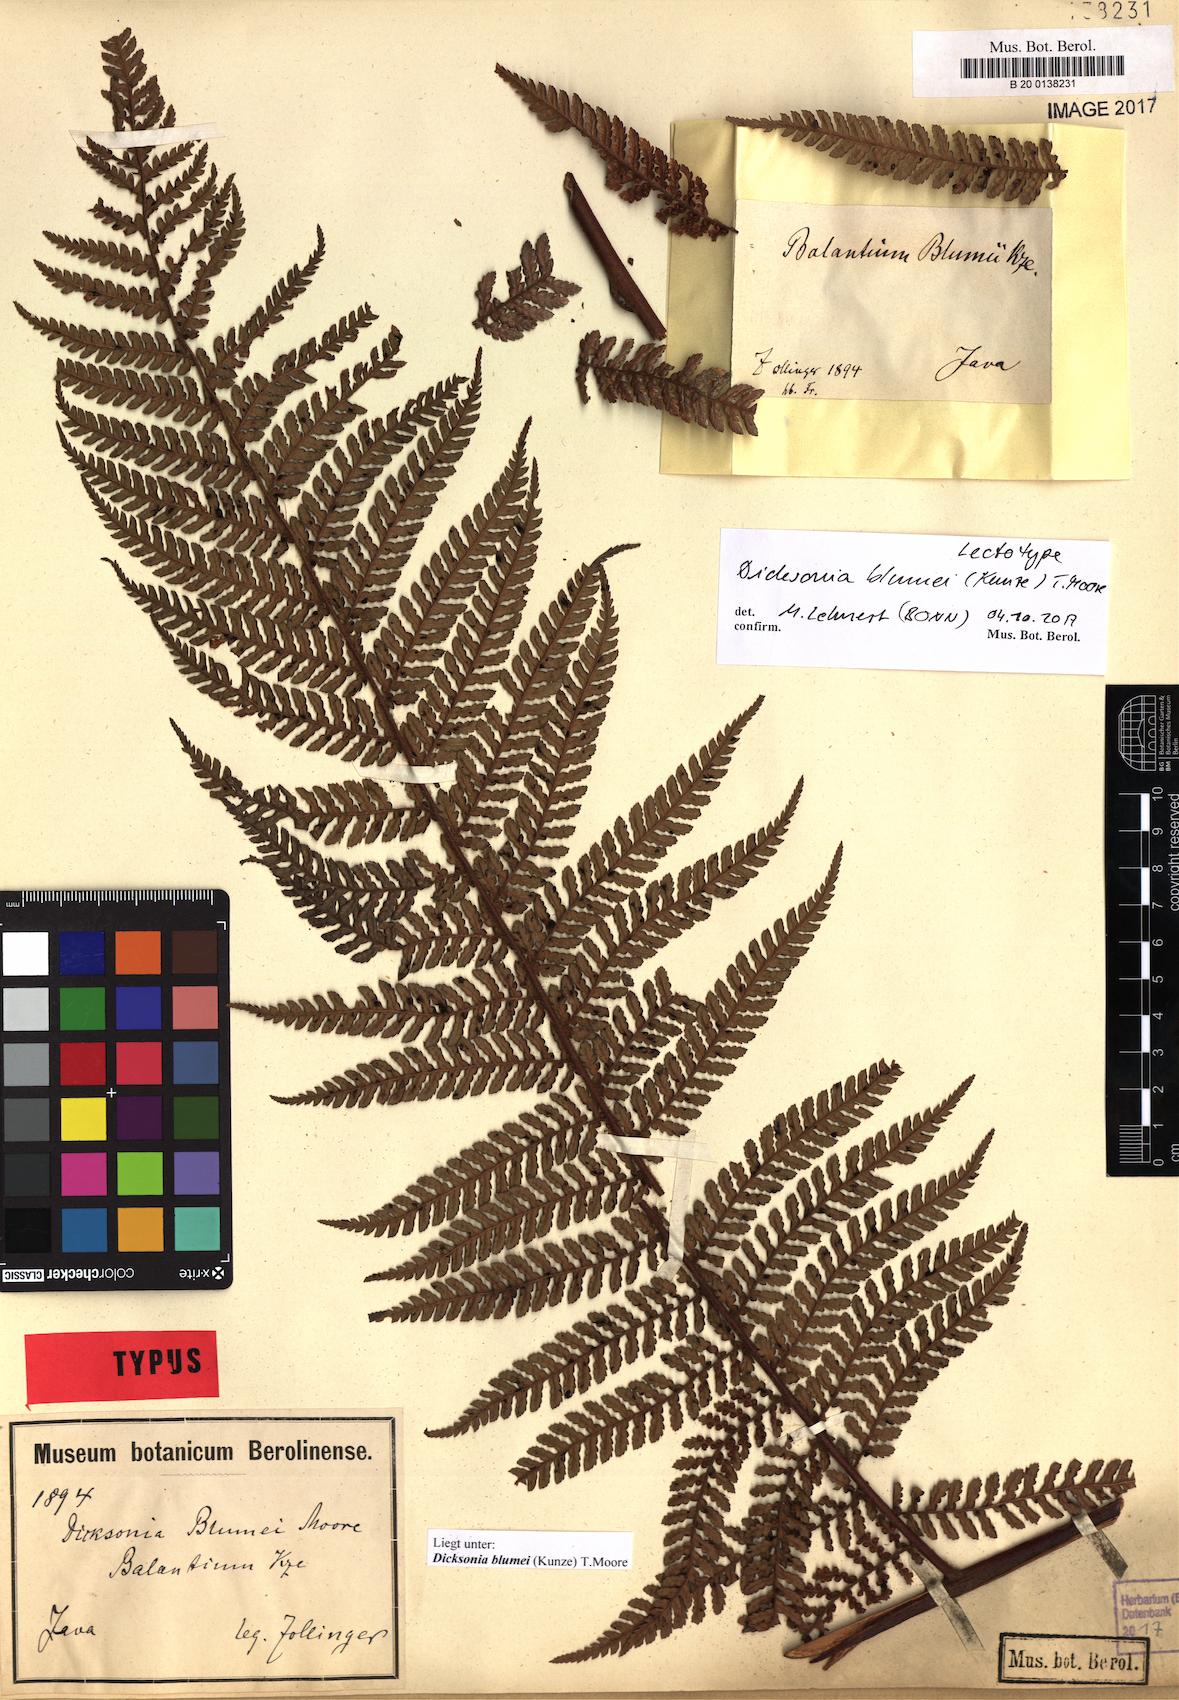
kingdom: Plantae
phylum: Tracheophyta
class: Polypodiopsida
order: Cyatheales
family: Dicksoniaceae
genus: Dicksonia
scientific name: Dicksonia blumei
